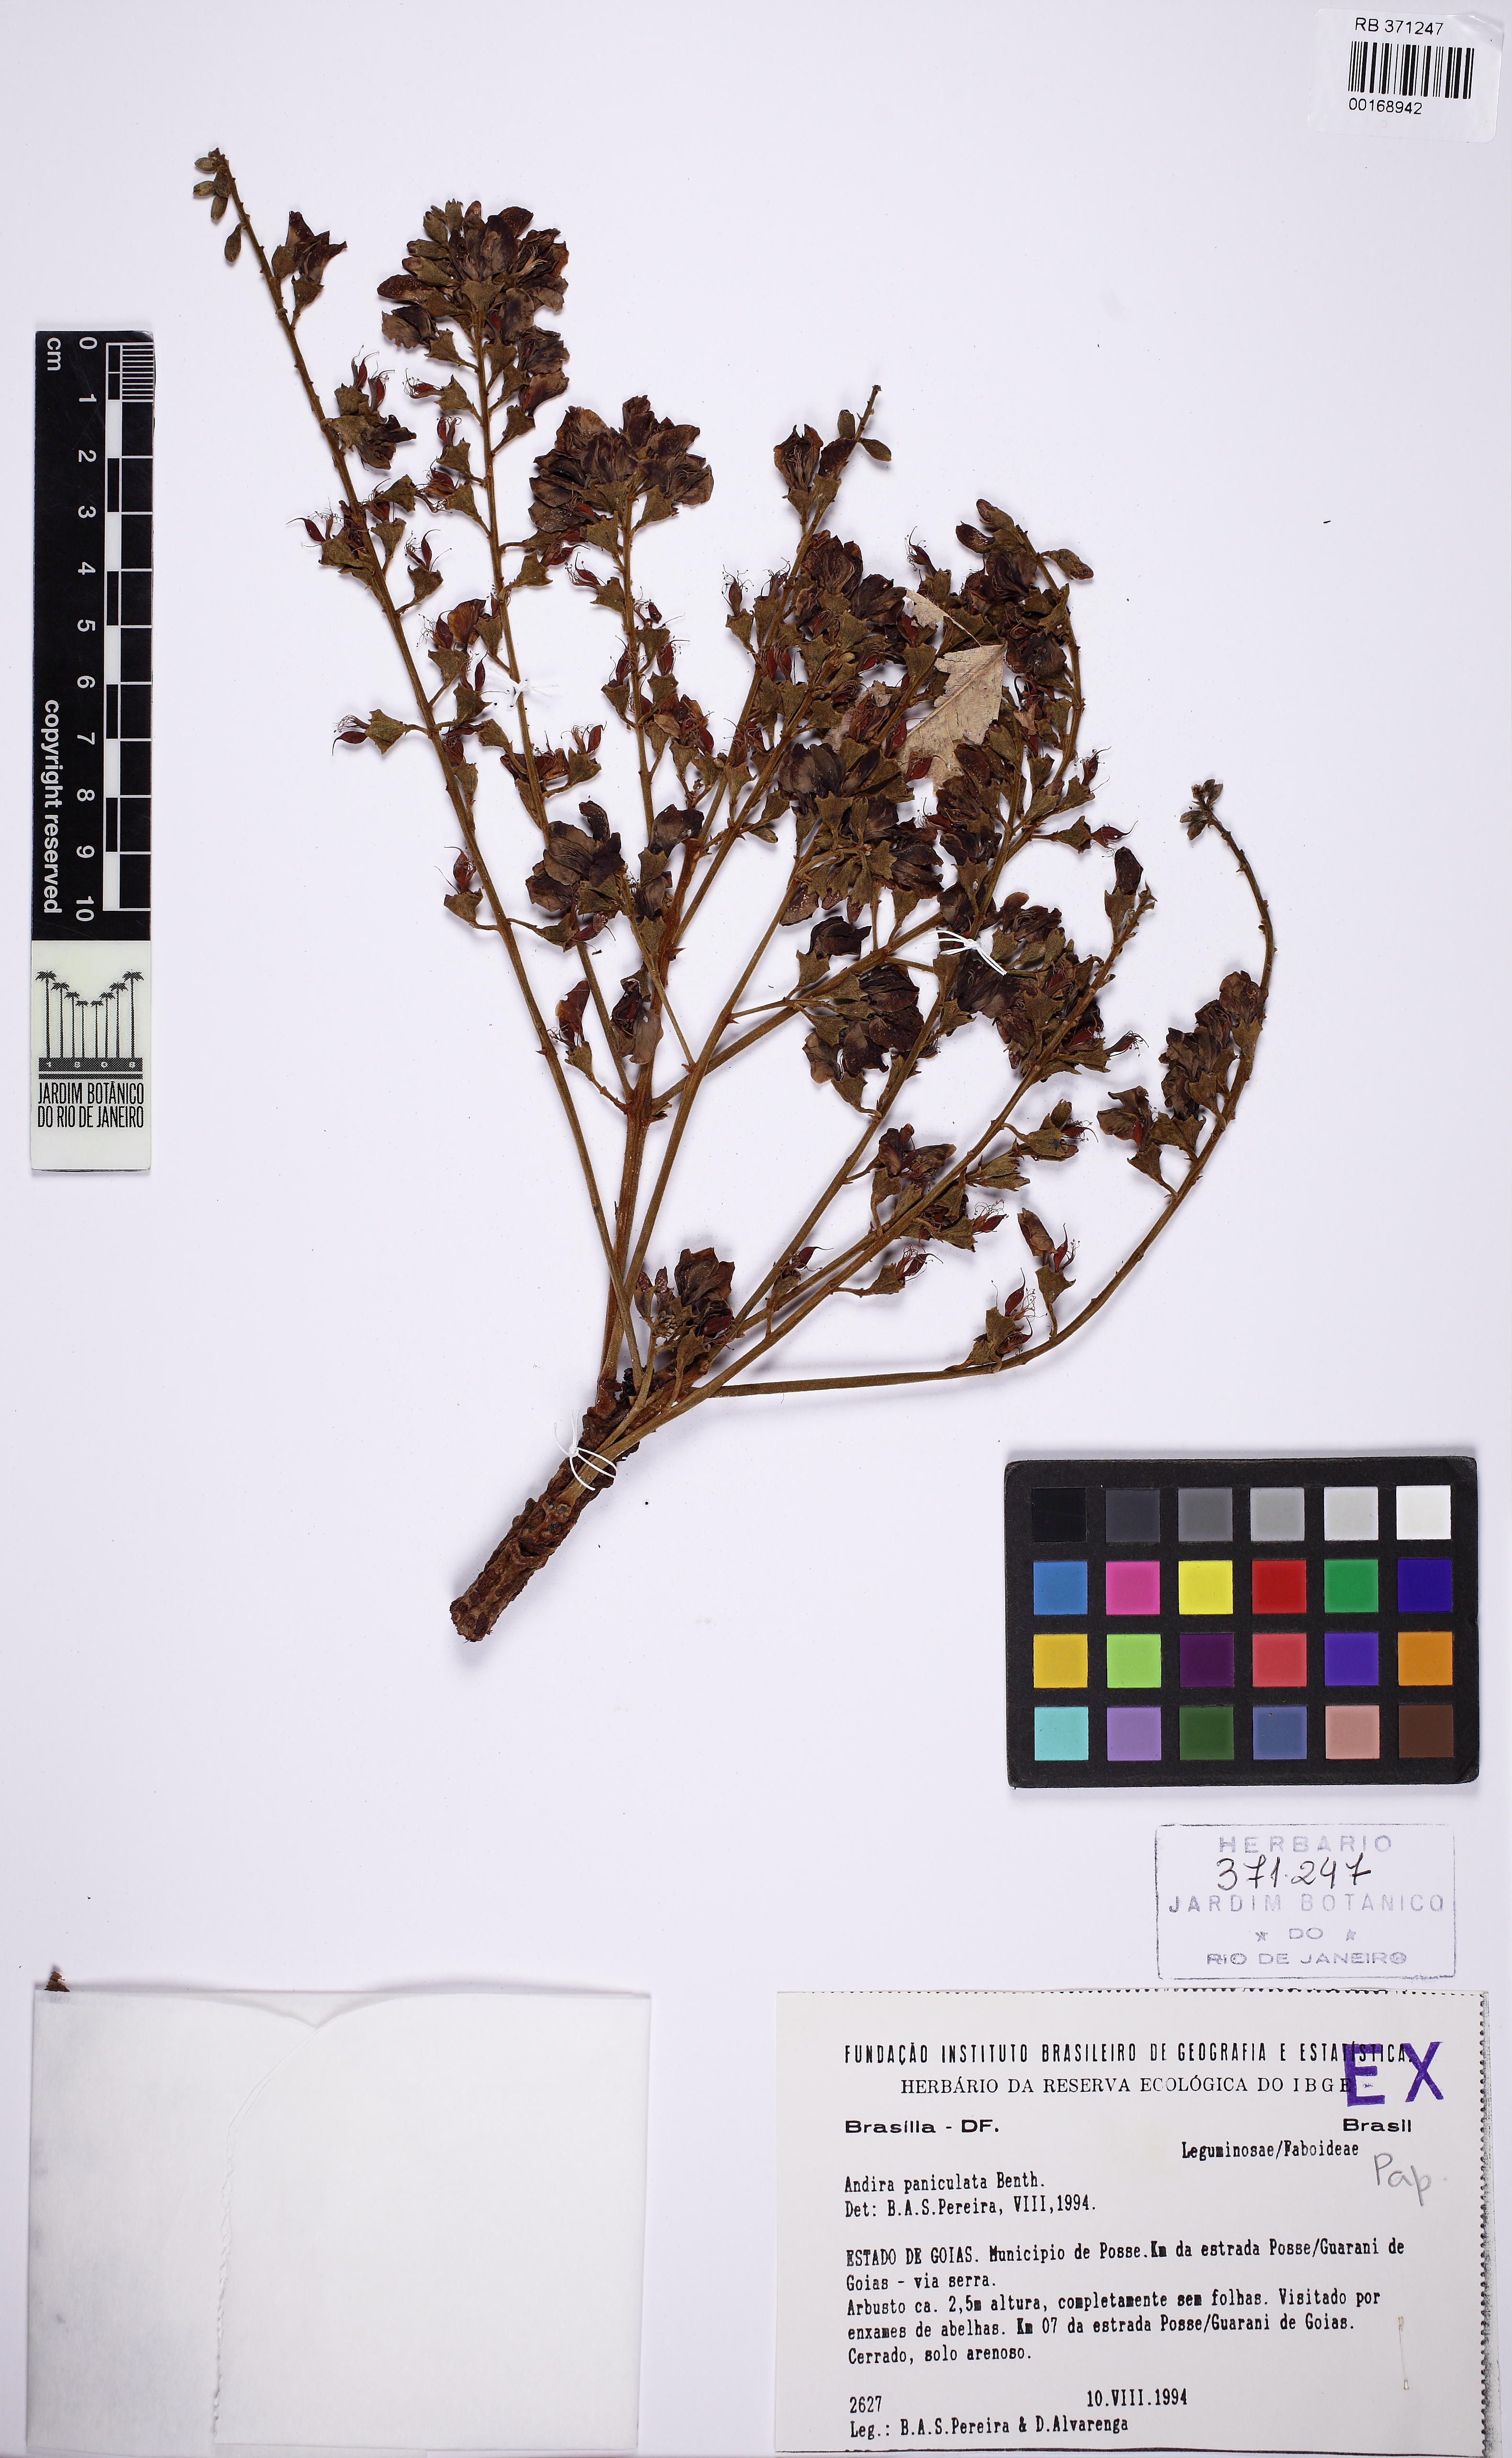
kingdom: Plantae
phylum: Tracheophyta
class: Magnoliopsida
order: Fabales
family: Fabaceae
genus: Andira
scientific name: Andira vermifuga
